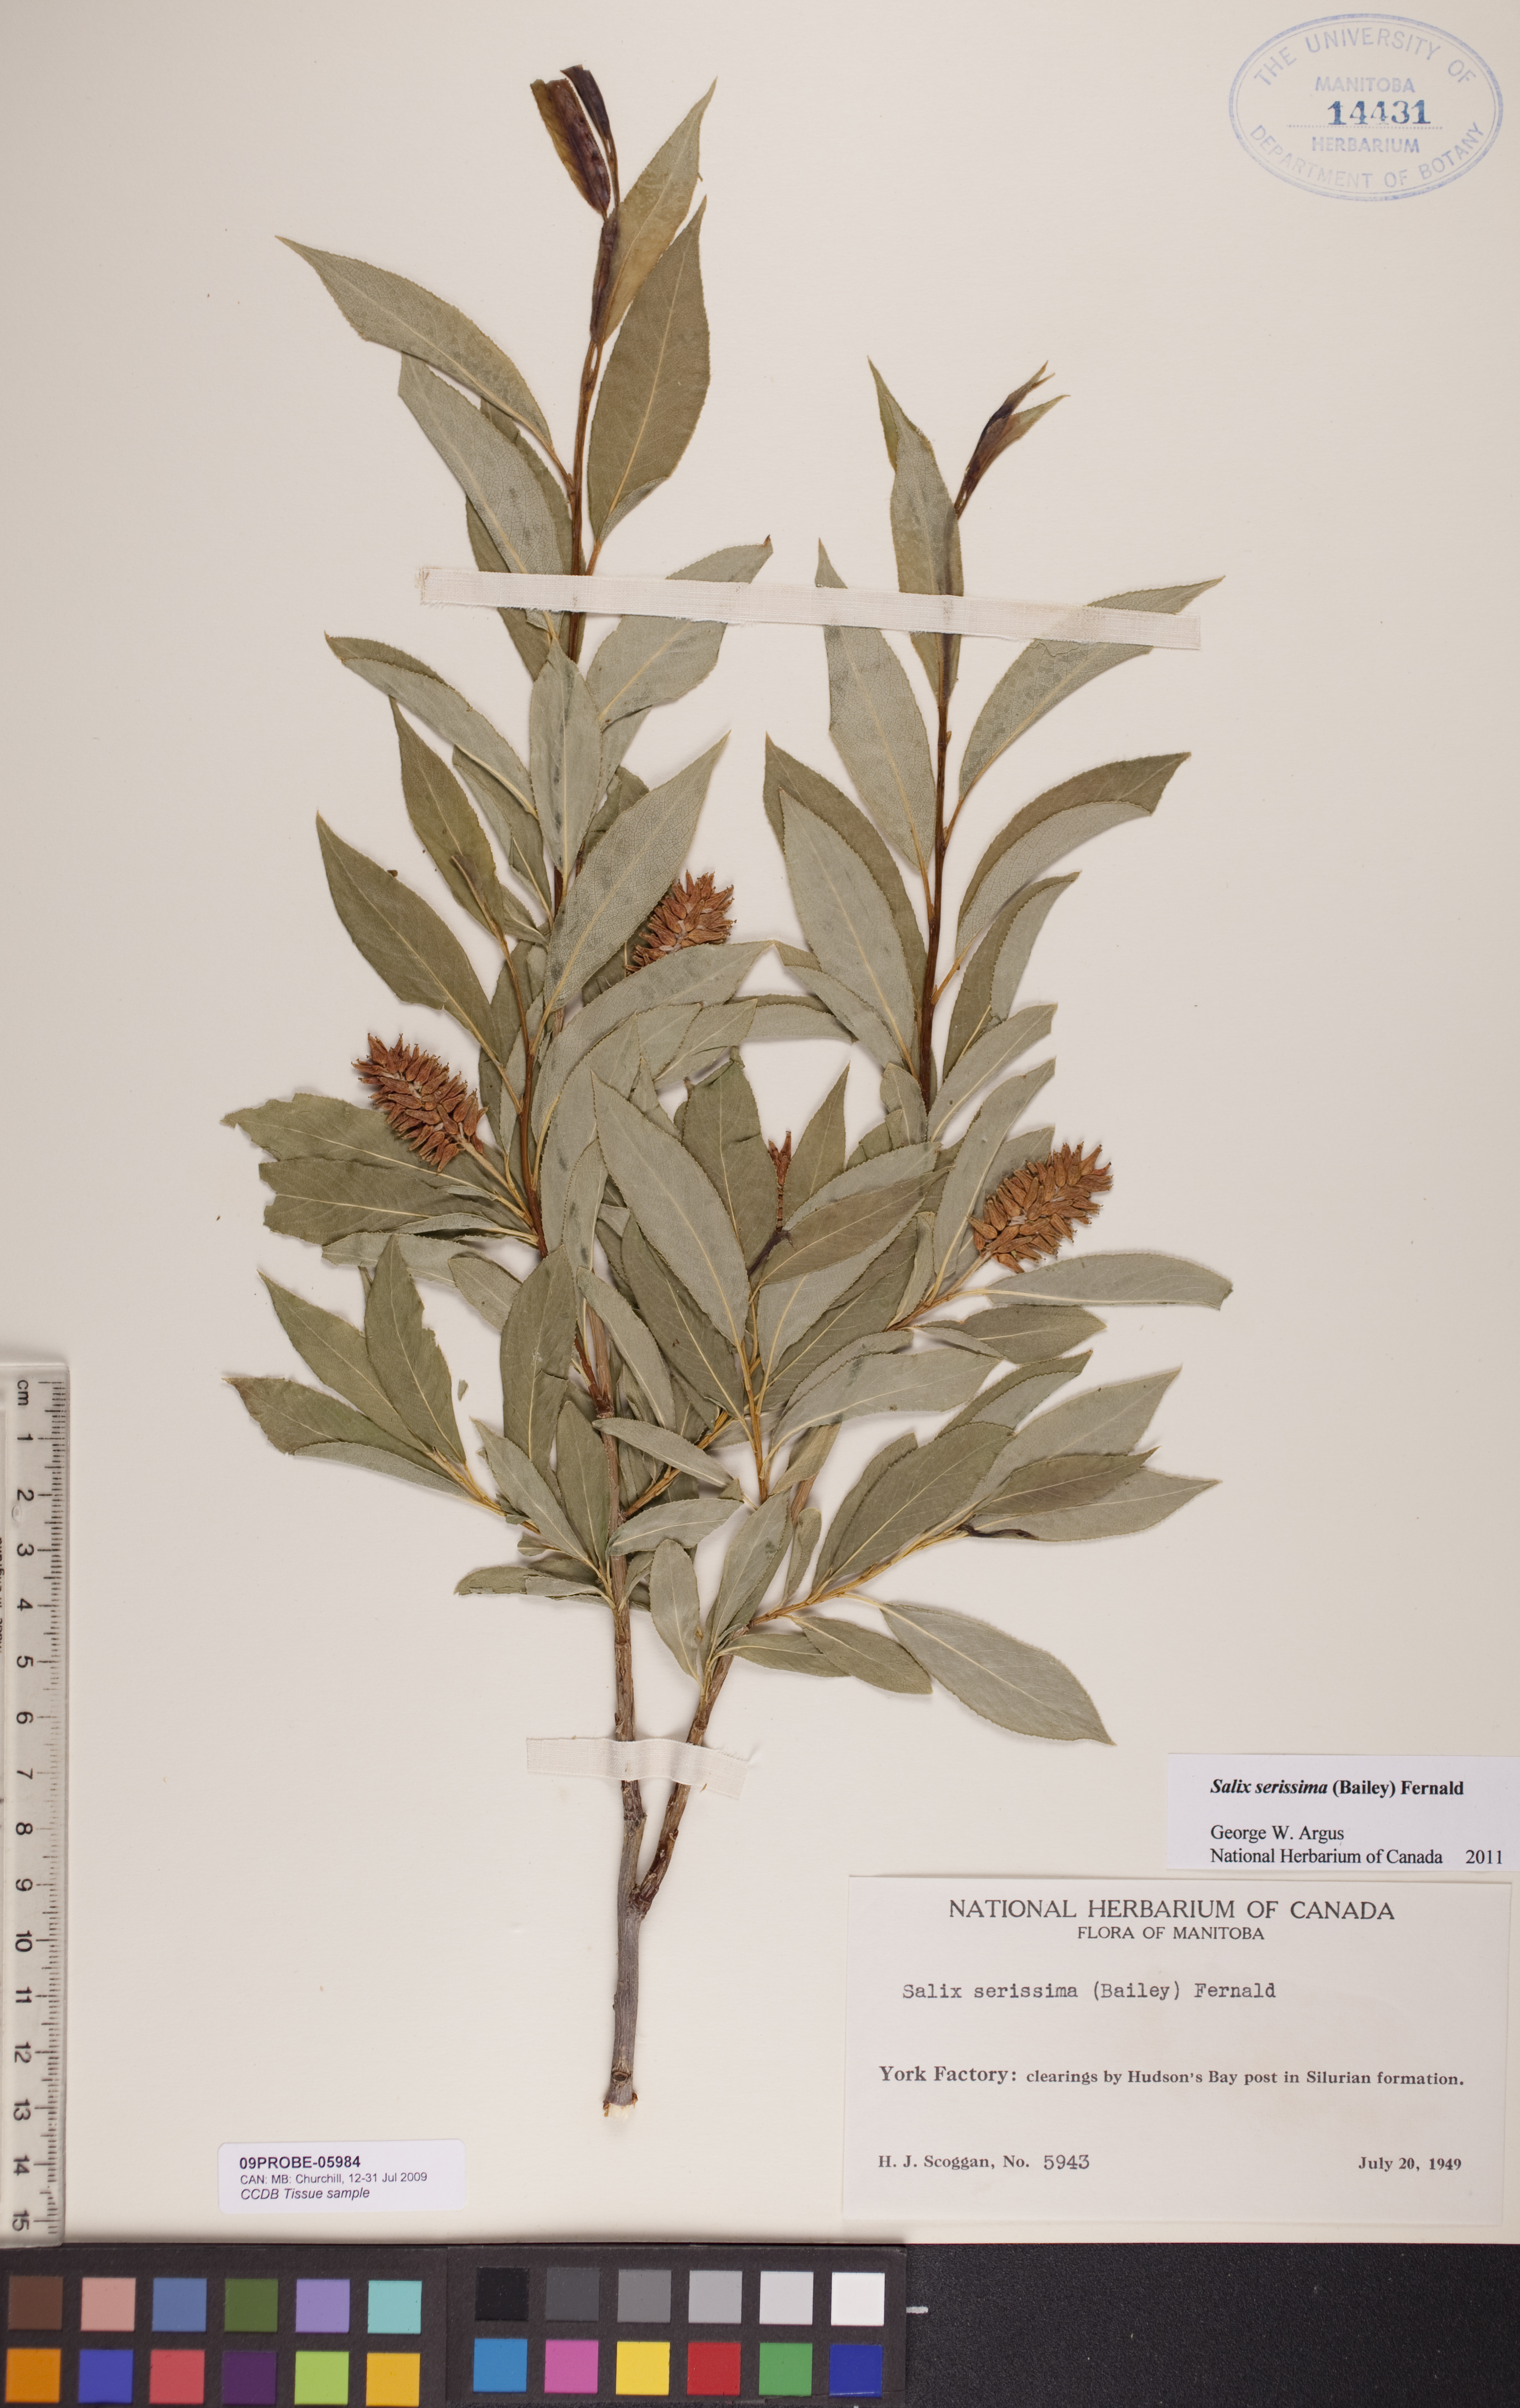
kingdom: Plantae
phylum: Tracheophyta
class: Magnoliopsida
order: Malpighiales
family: Salicaceae
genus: Salix
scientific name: Salix serissima
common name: Autumn willow
